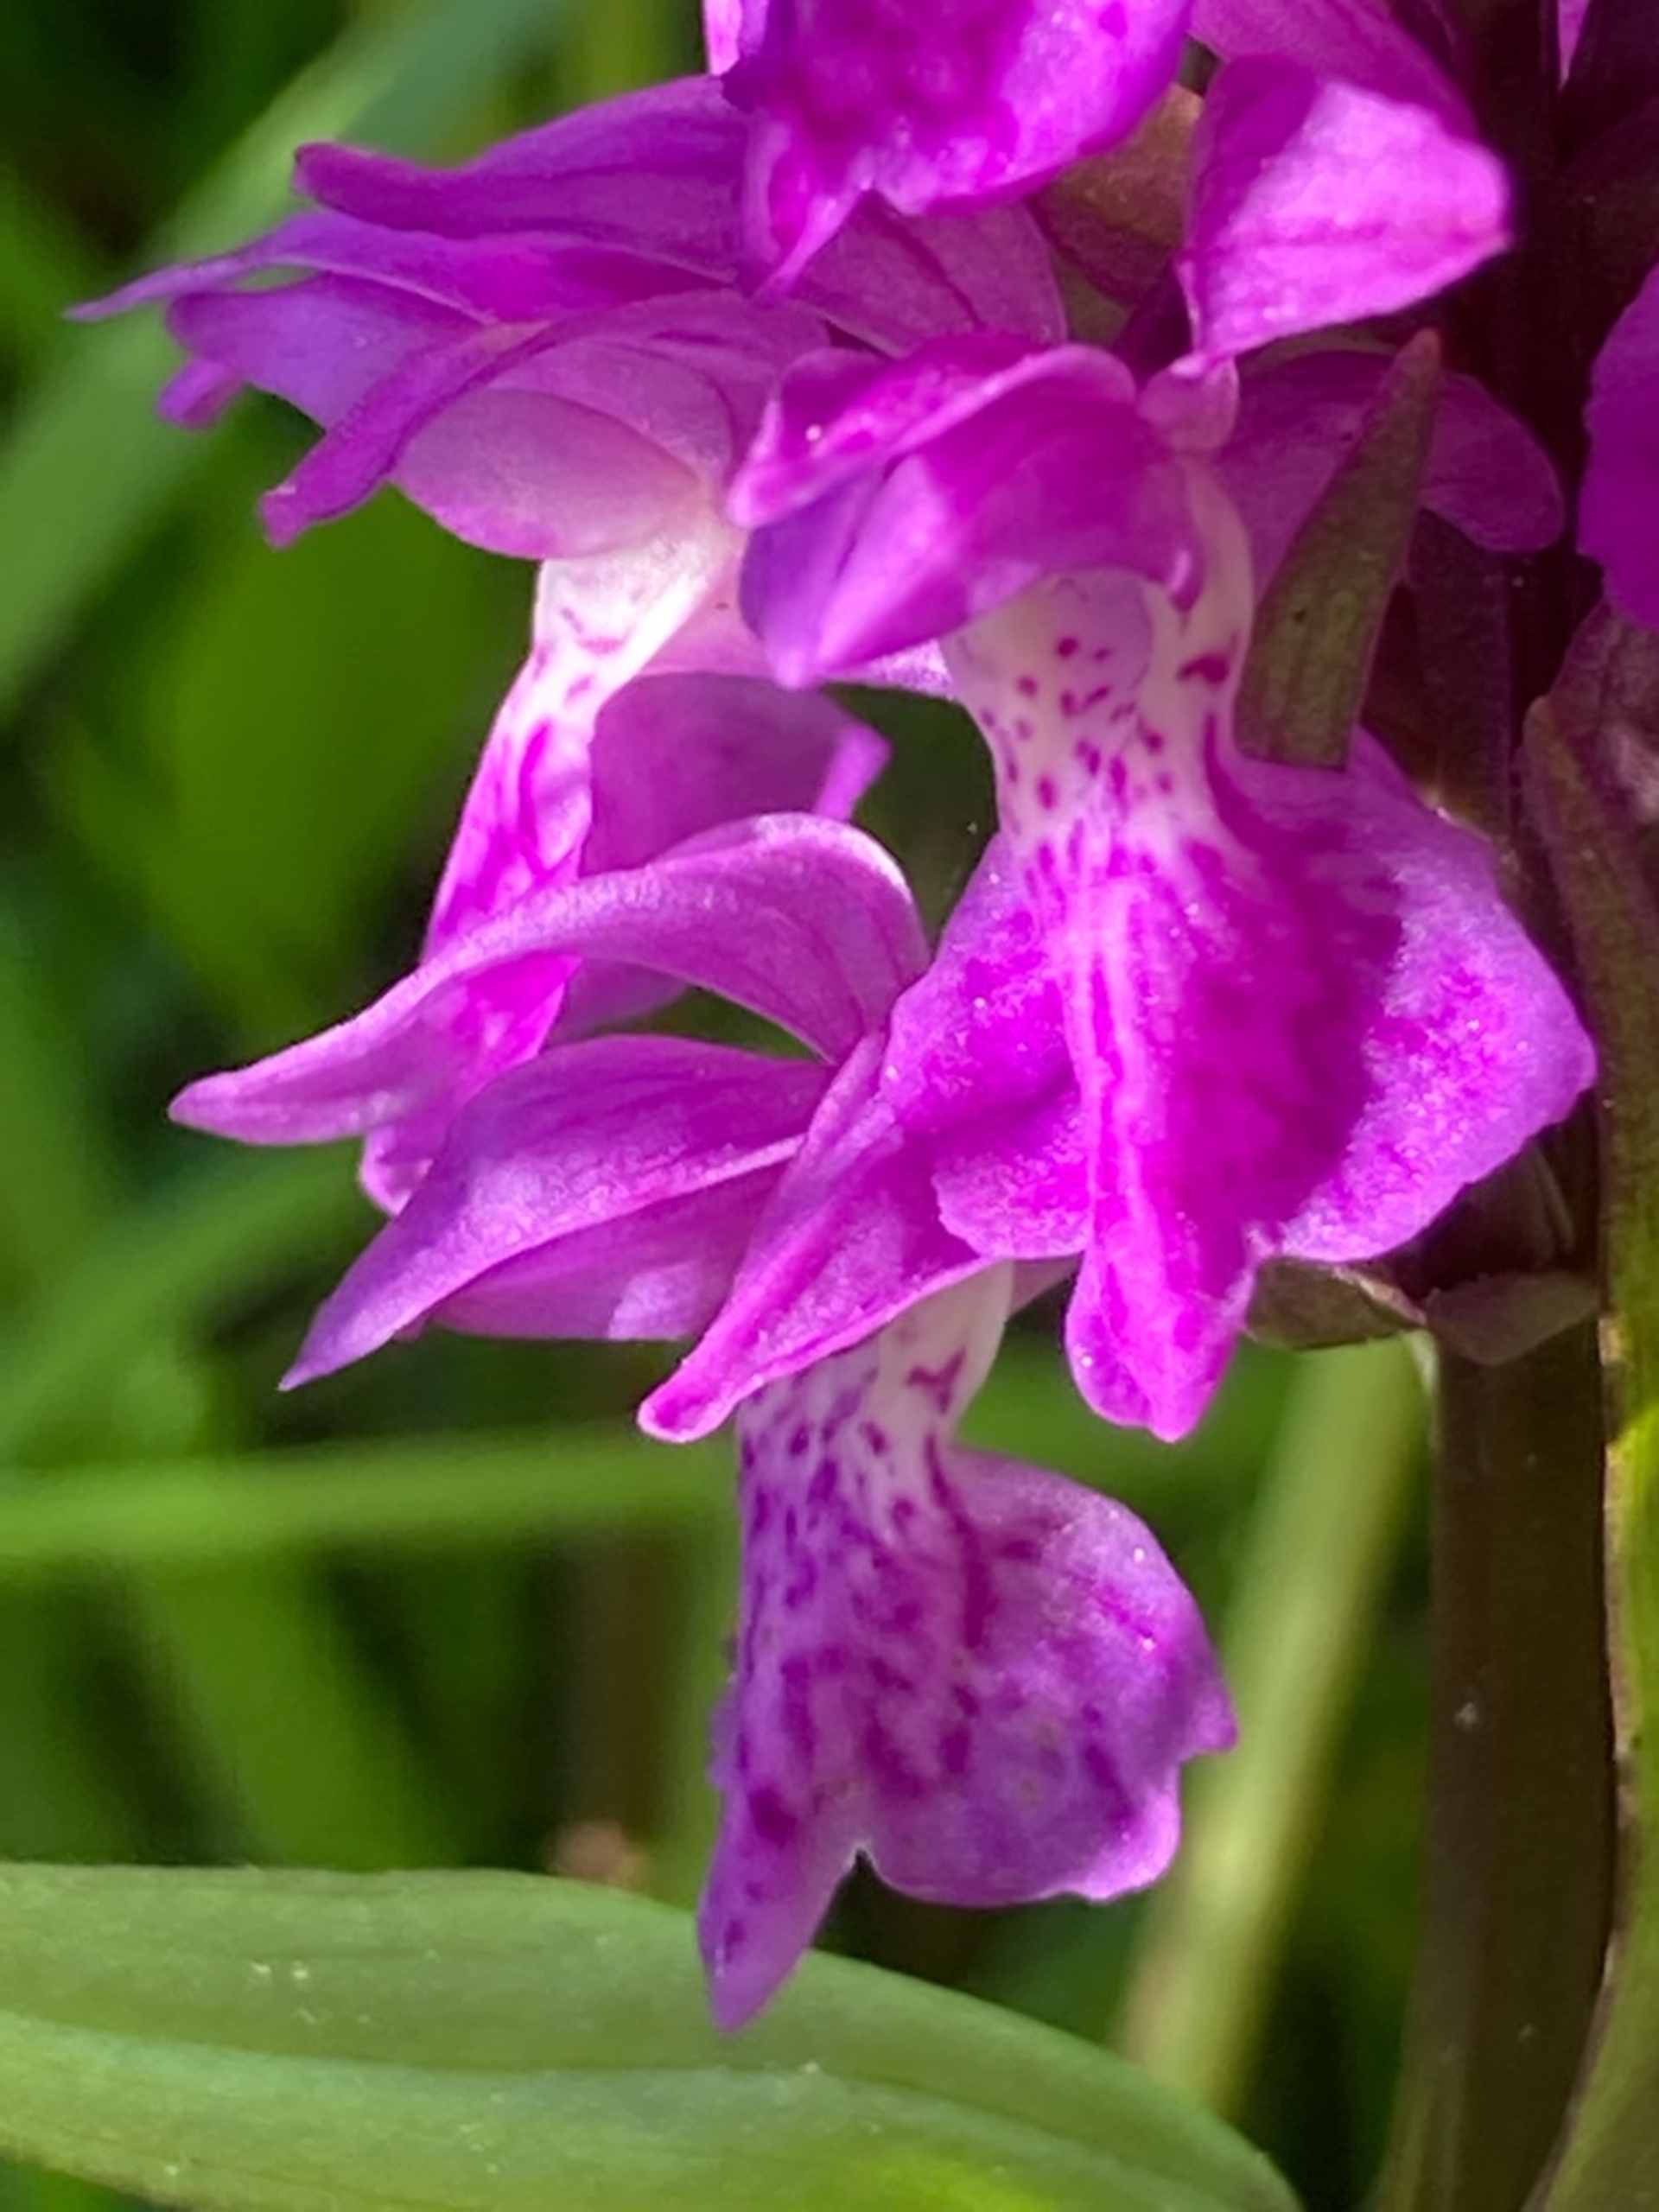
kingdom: Plantae
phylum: Tracheophyta
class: Liliopsida
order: Asparagales
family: Orchidaceae
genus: Dactylorhiza
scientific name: Dactylorhiza majalis
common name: Maj-gøgeurt
